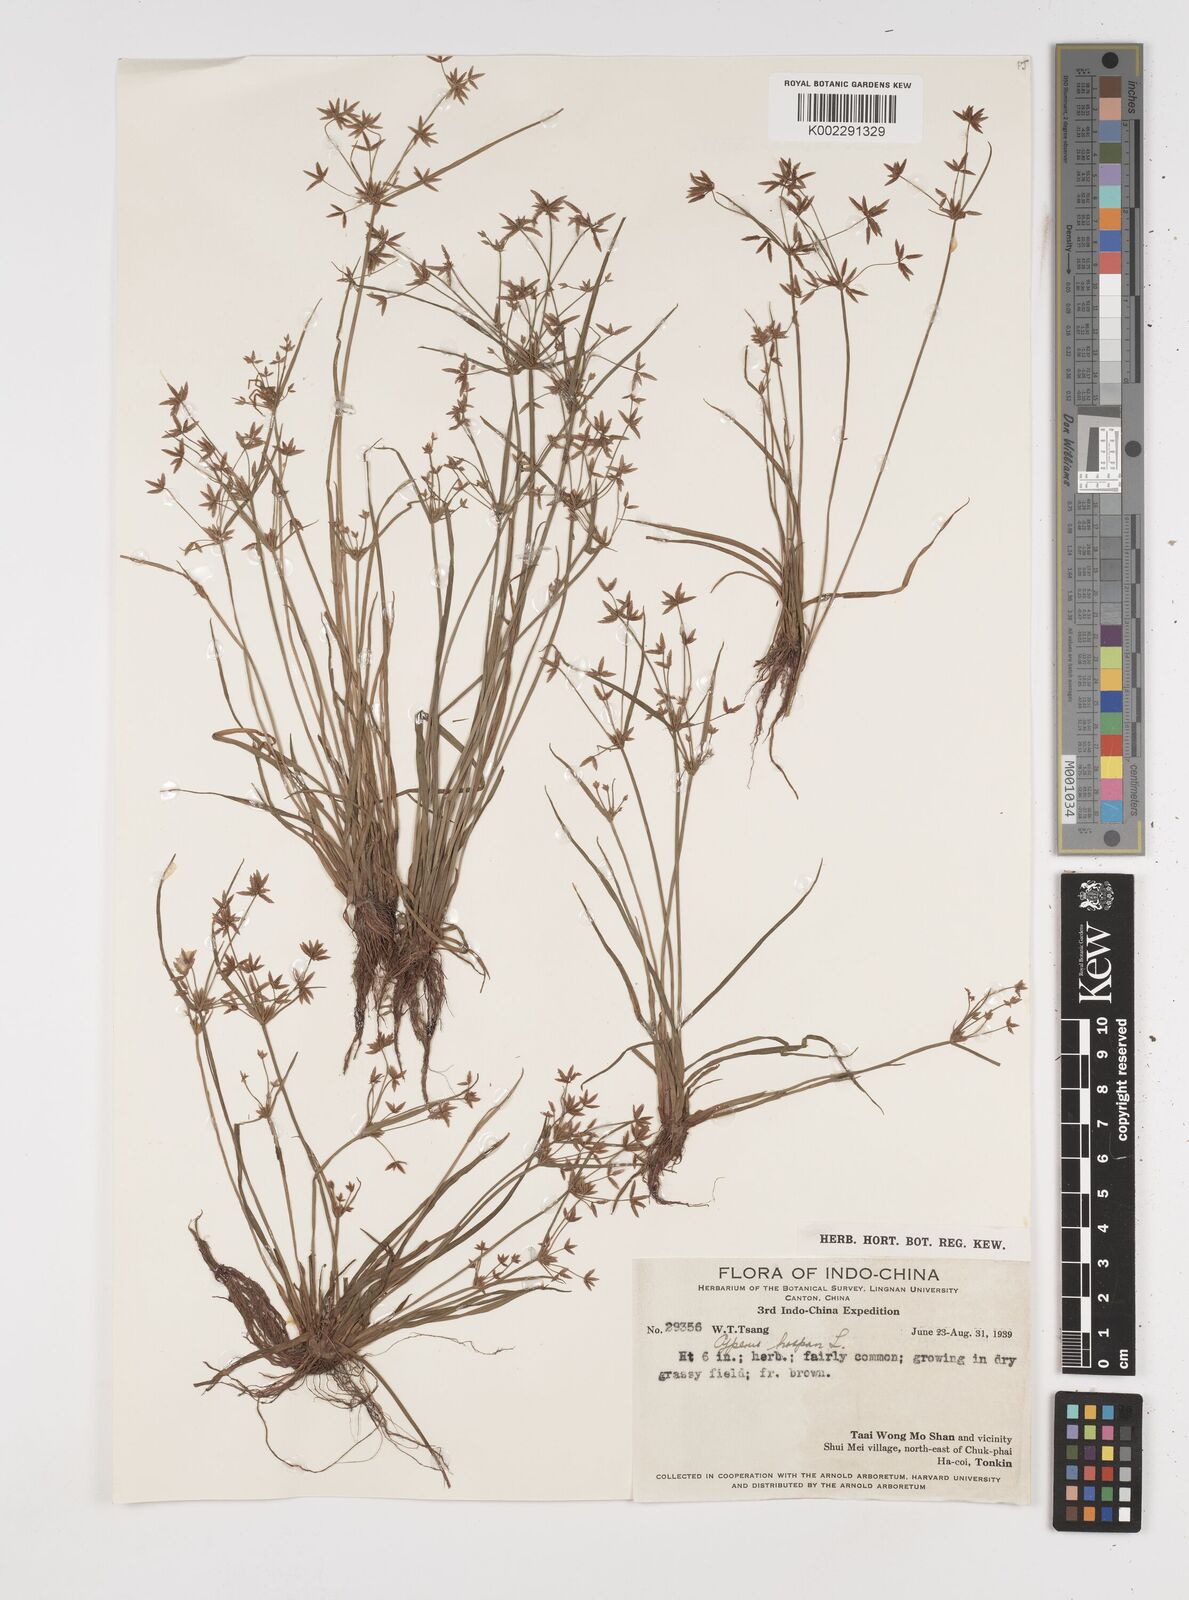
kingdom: Plantae
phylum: Tracheophyta
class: Liliopsida
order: Poales
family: Cyperaceae
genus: Cyperus
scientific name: Cyperus haspan
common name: Haspan flatsedge
